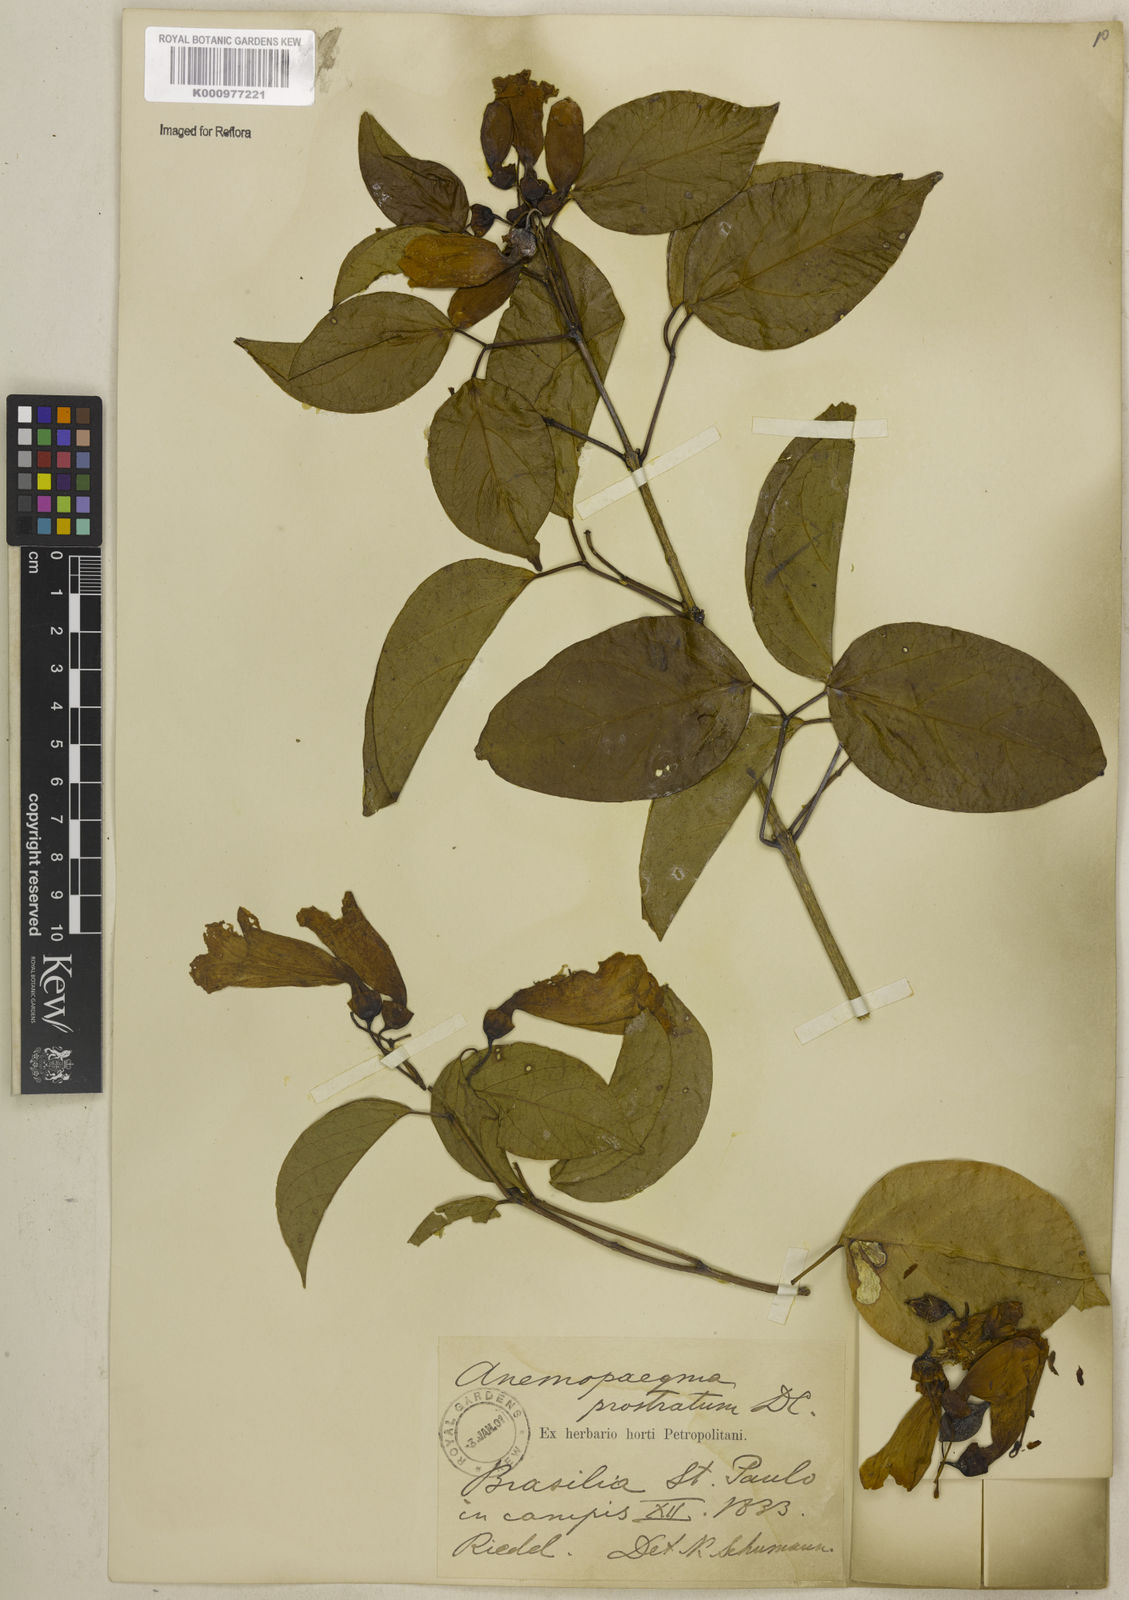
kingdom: Plantae
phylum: Tracheophyta
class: Magnoliopsida
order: Lamiales
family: Bignoniaceae
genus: Anemopaegma
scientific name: Anemopaegma prostratum
